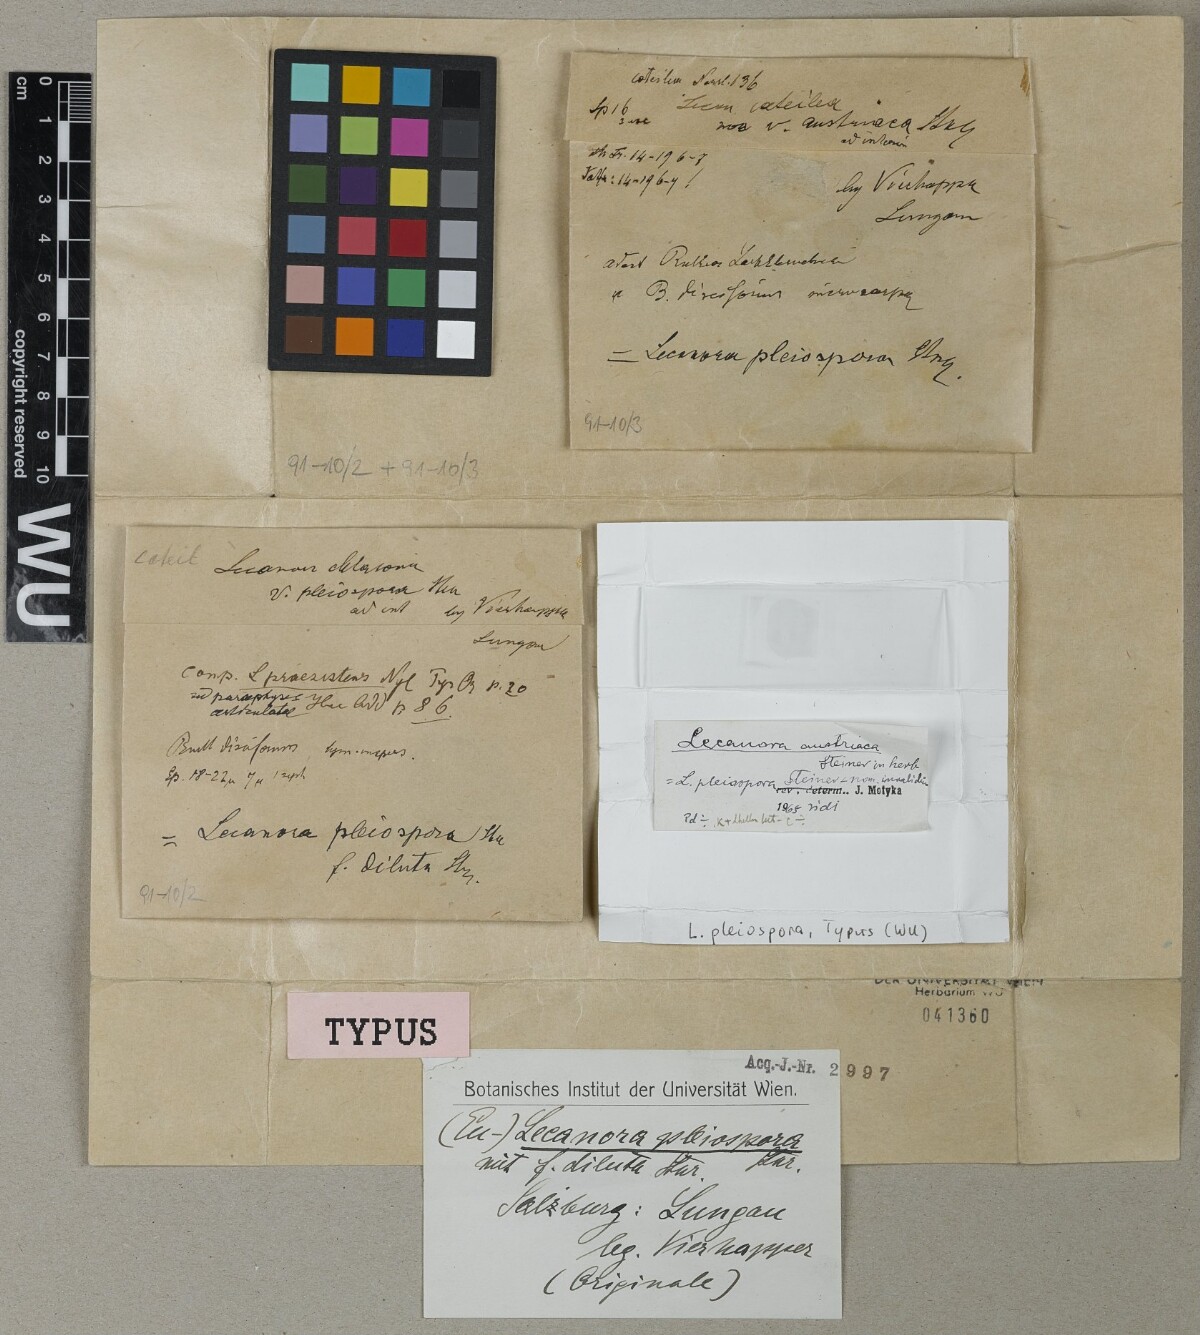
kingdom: Fungi
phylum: Ascomycota
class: Lecanoromycetes
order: Lecanorales
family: Lecanoraceae
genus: Lecanora
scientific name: Lecanora pleiospora
